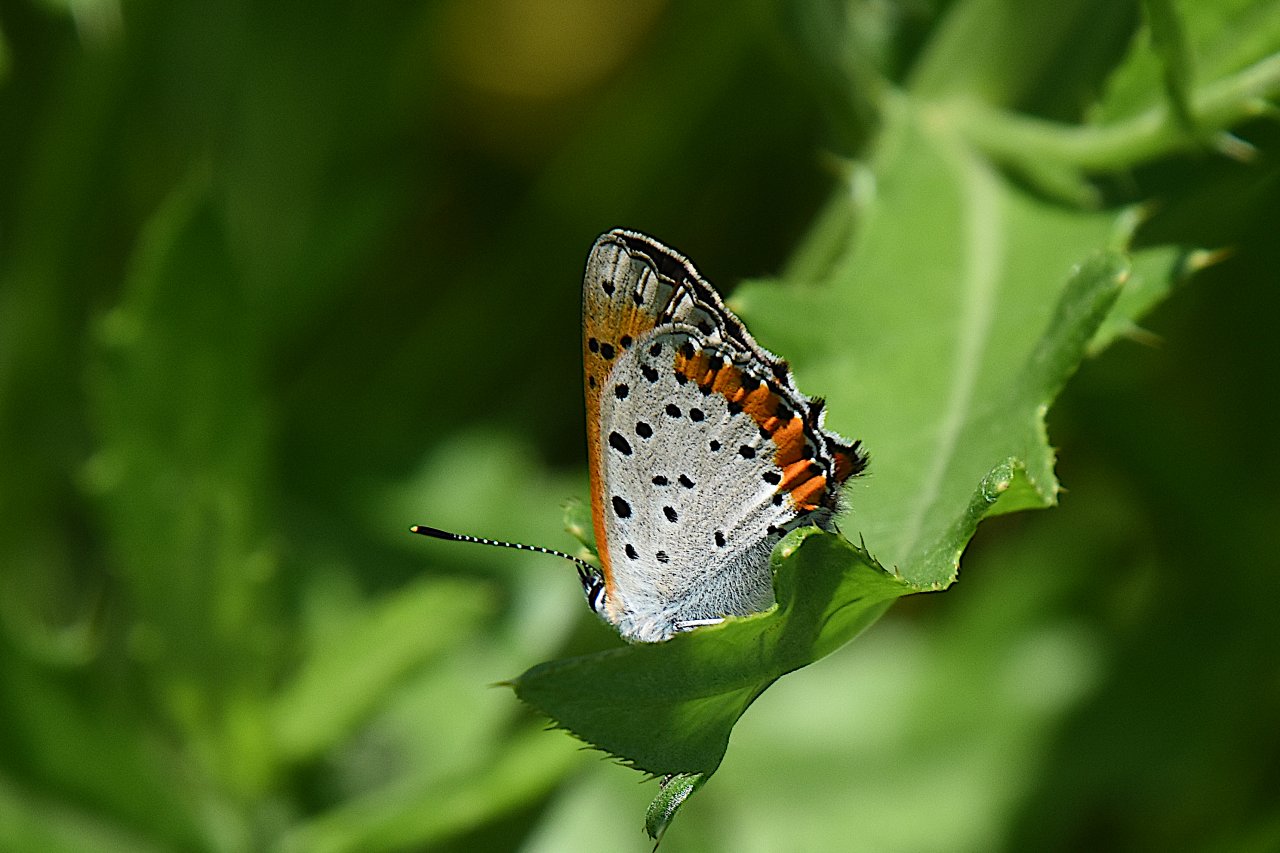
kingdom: Animalia
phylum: Arthropoda
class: Insecta
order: Lepidoptera
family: Sesiidae
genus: Sesia
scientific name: Sesia Lycaena hyllus
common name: Bronze Copper
